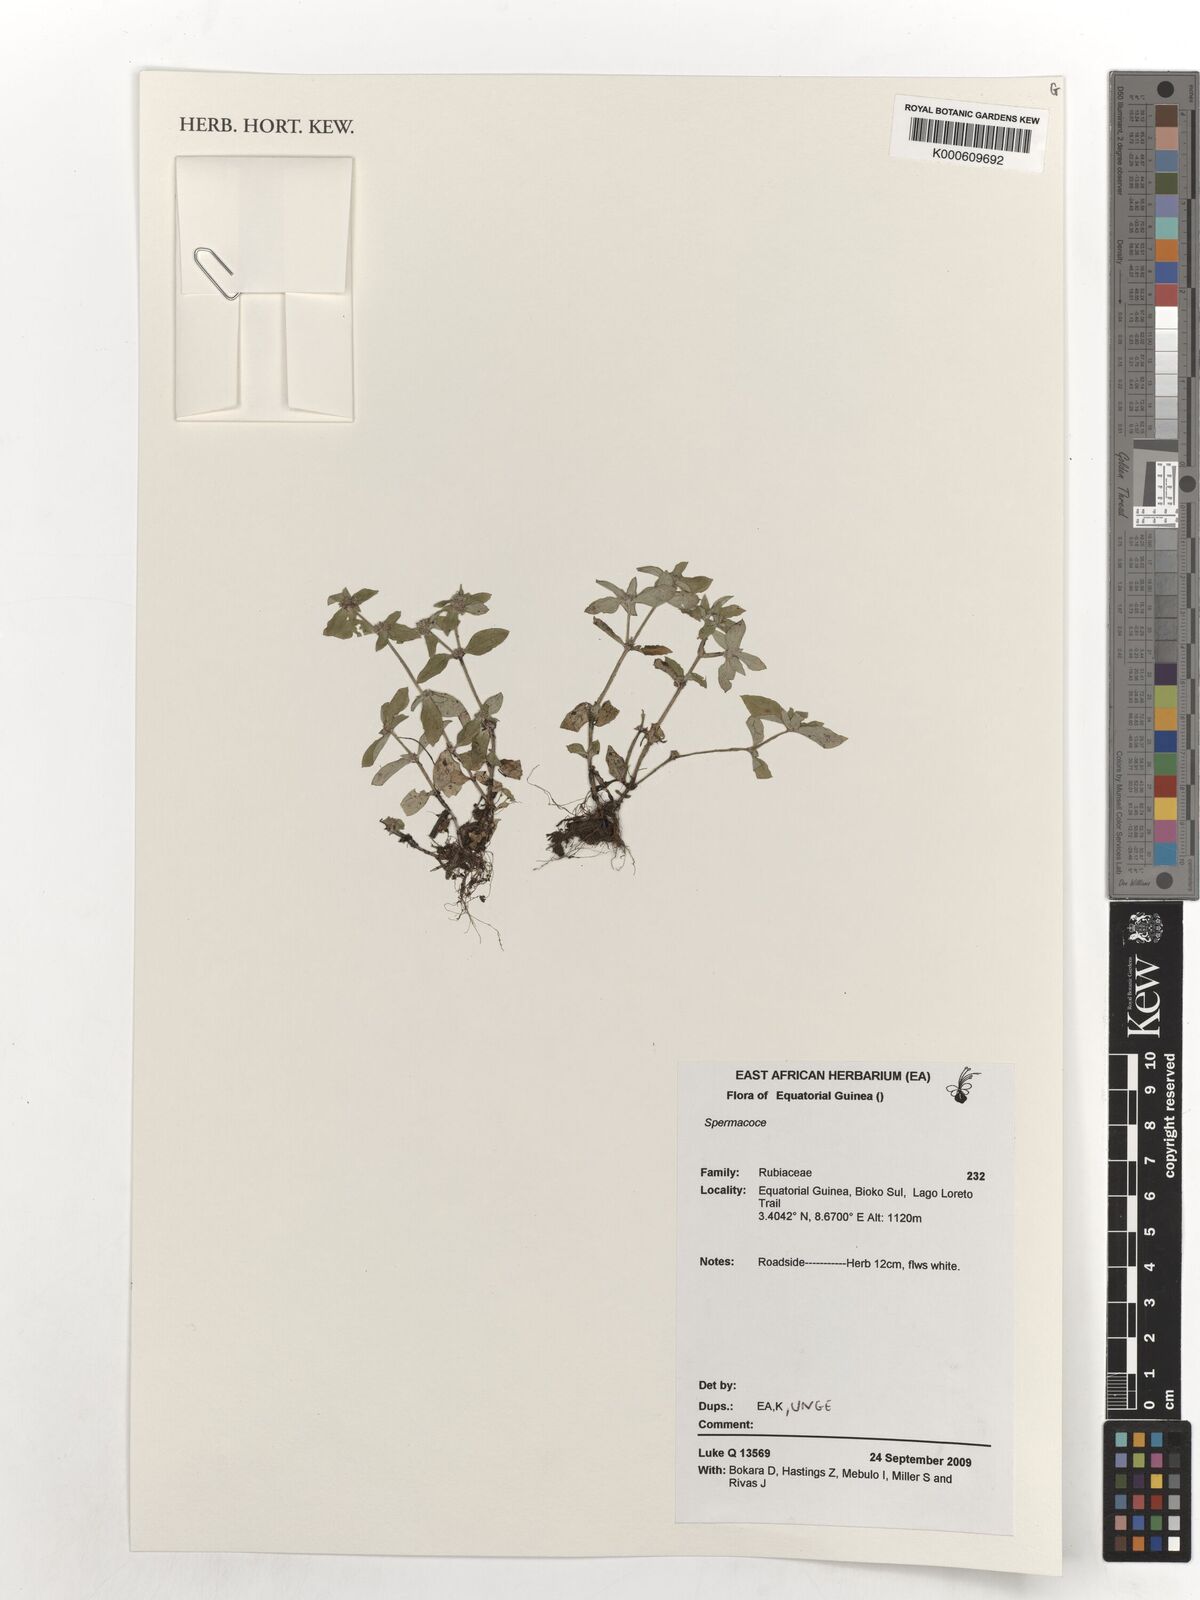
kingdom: Plantae
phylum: Tracheophyta
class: Magnoliopsida
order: Gentianales
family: Rubiaceae
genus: Spermacoce
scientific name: Spermacoce
